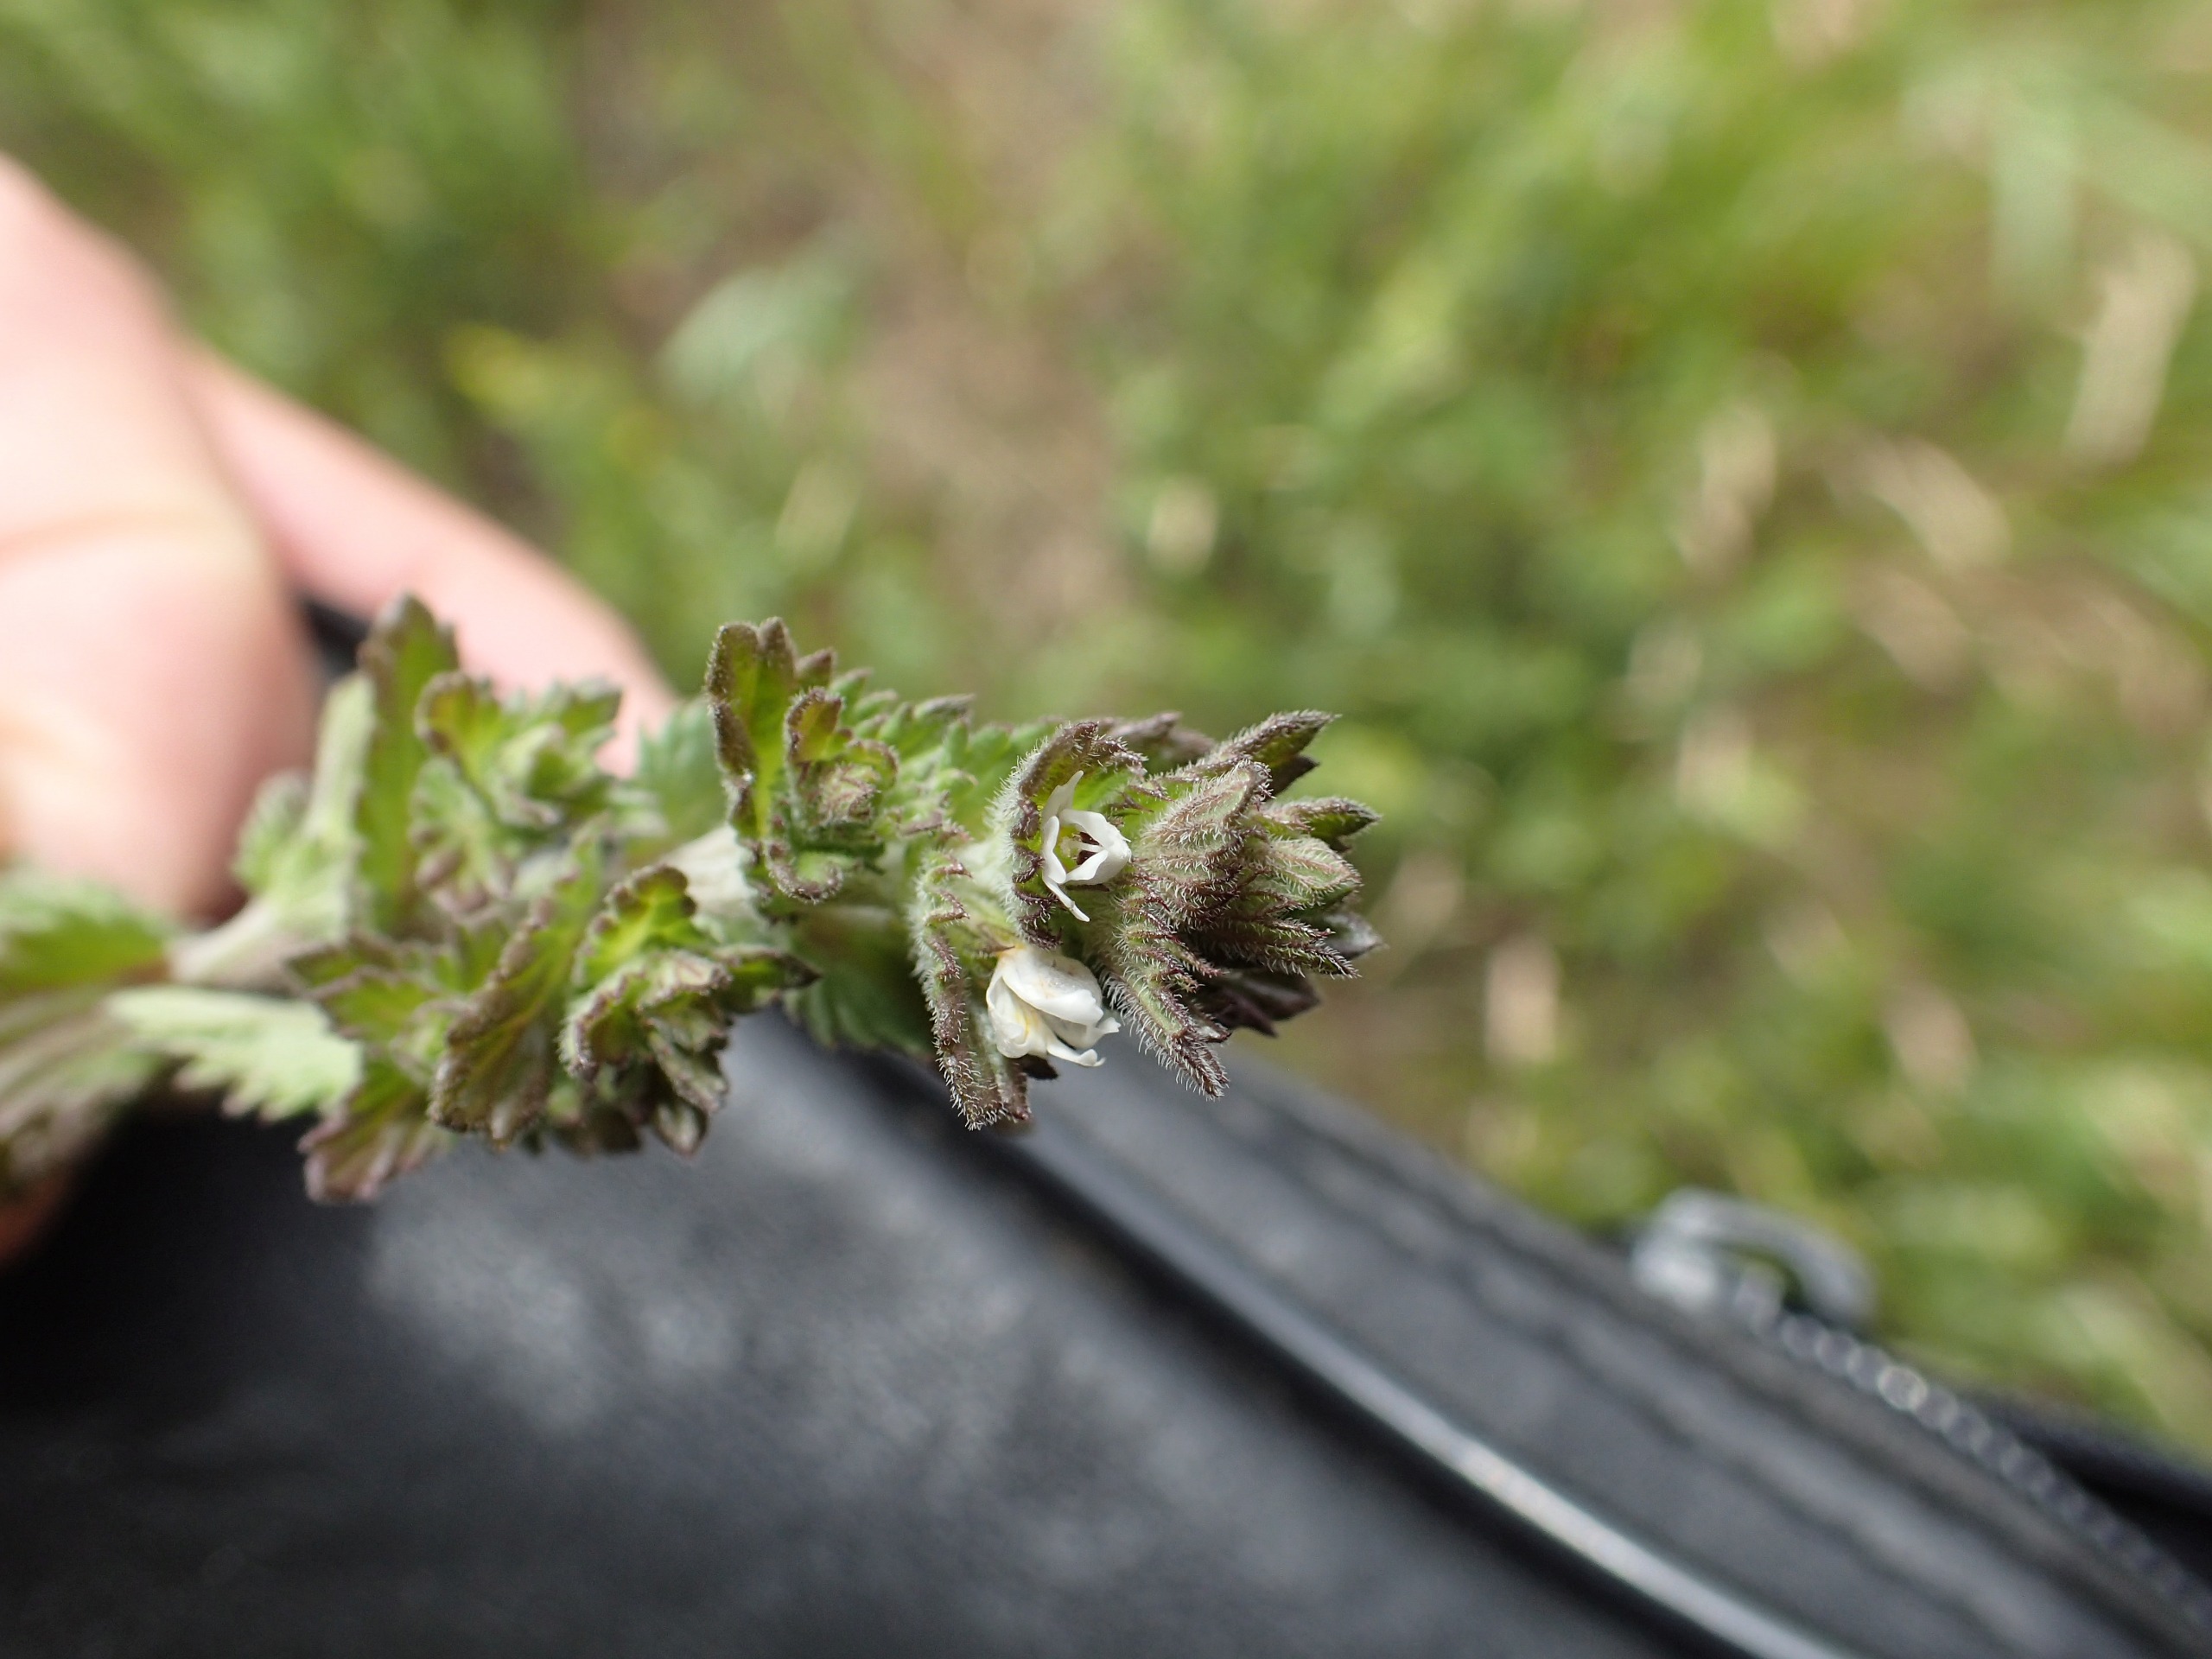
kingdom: Plantae
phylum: Tracheophyta
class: Magnoliopsida
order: Lamiales
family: Orobanchaceae
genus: Euphrasia
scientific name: Euphrasia nemorosa
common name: Kort øjentrøst
